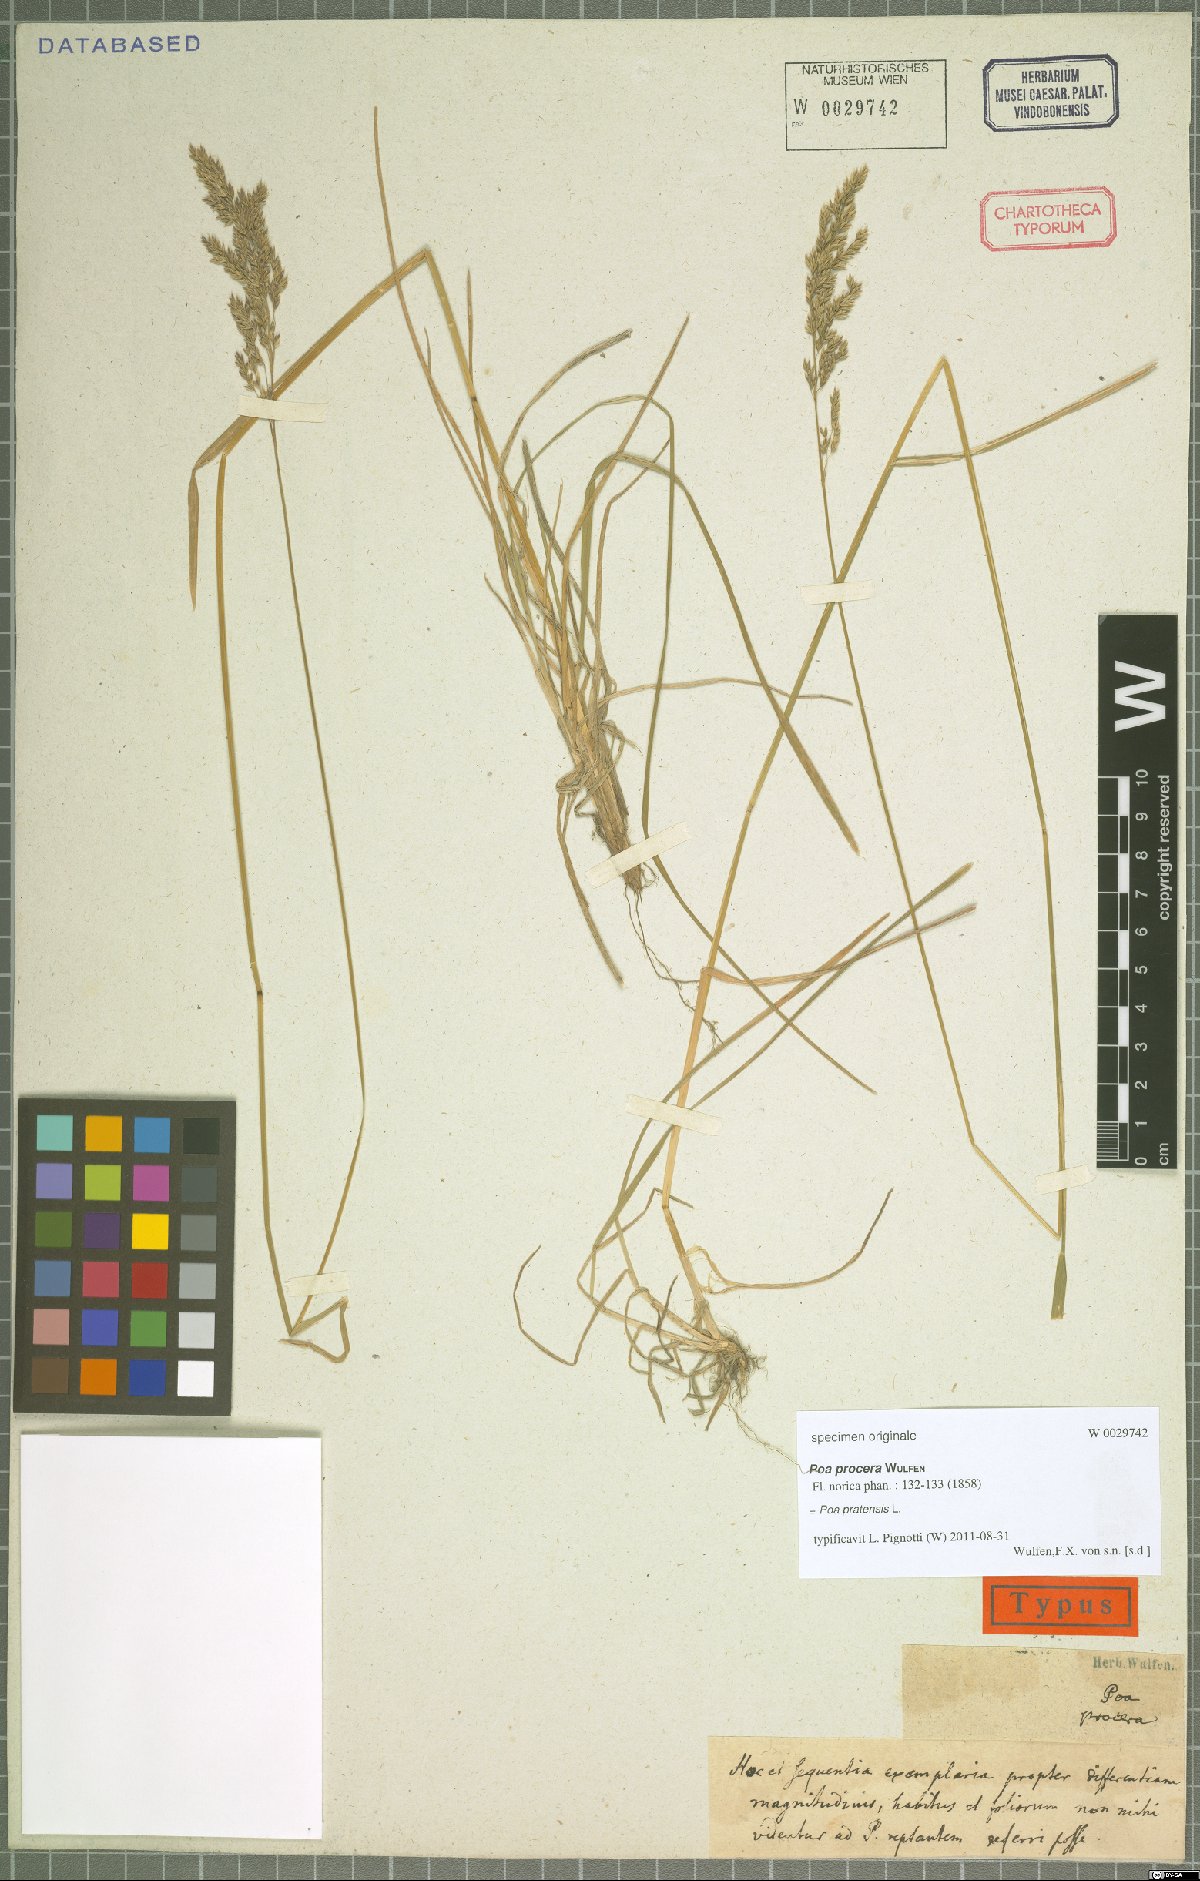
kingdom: Plantae
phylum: Tracheophyta
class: Liliopsida
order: Poales
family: Poaceae
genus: Poa
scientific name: Poa pratensis
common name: Kentucky bluegrass
